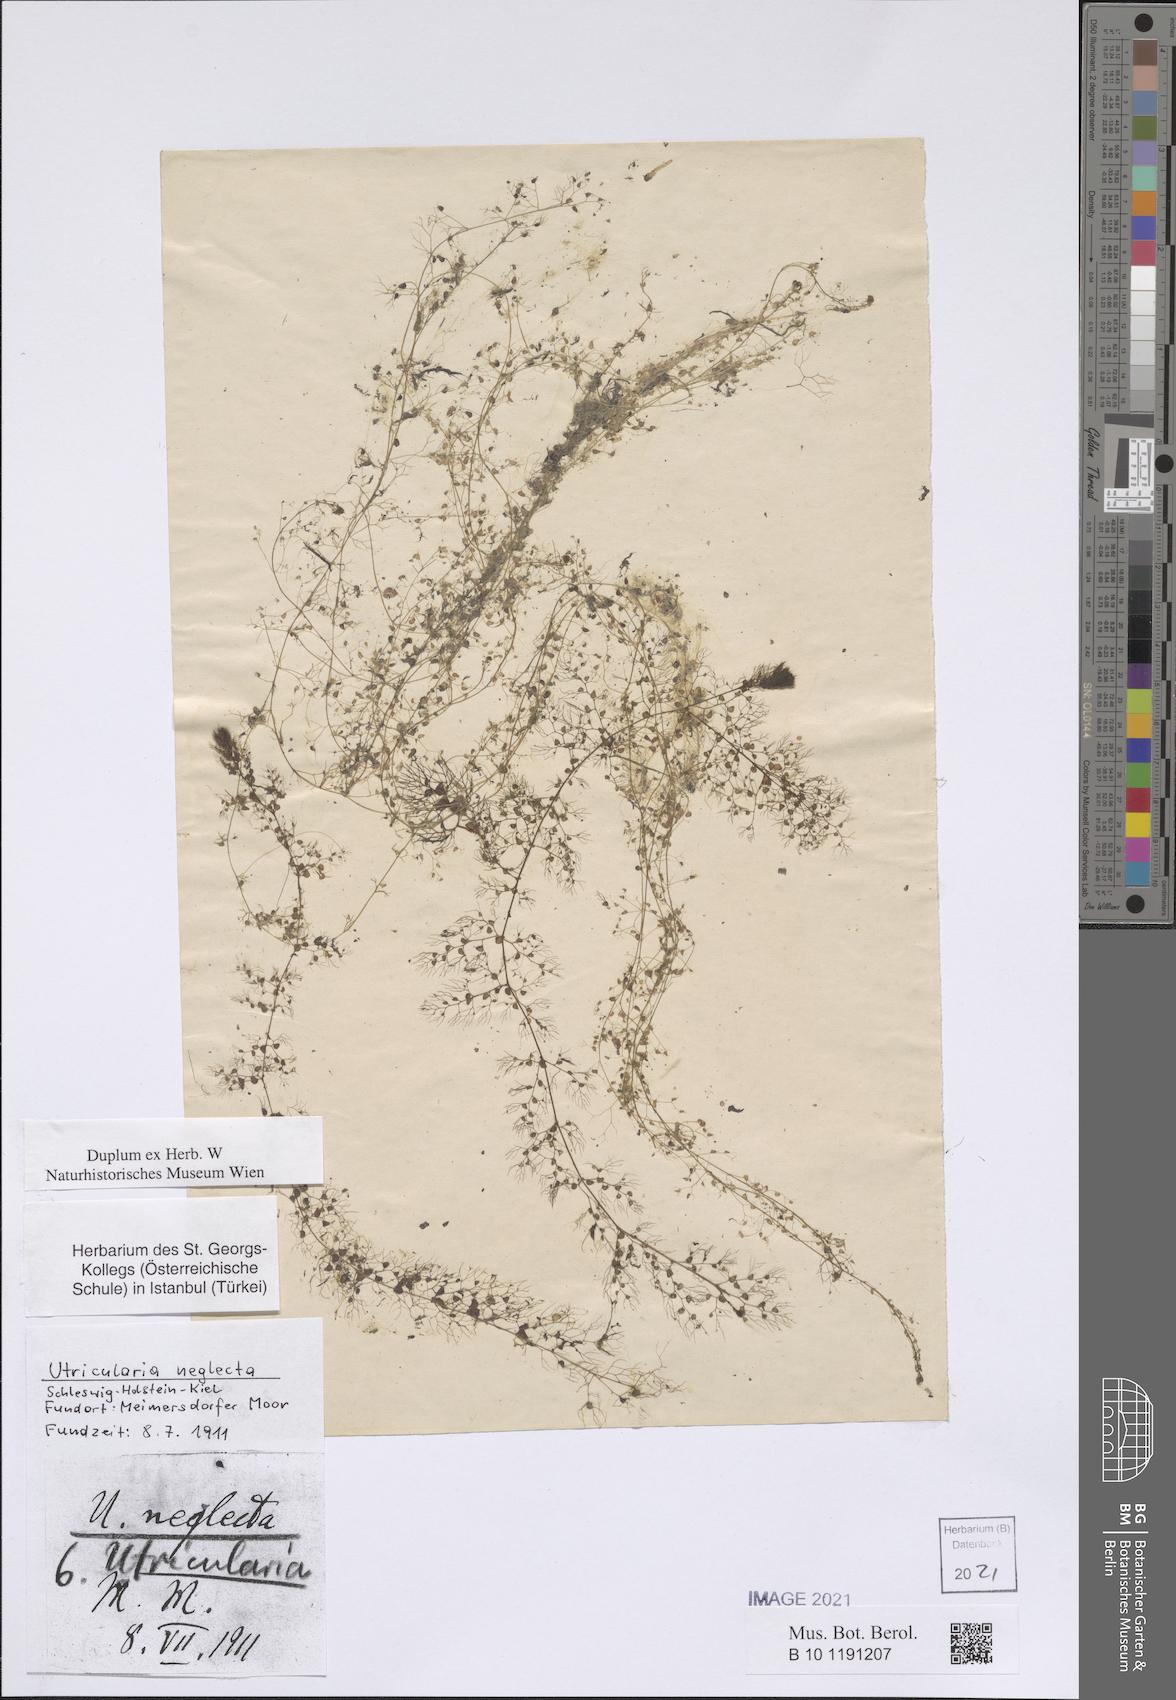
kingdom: Plantae
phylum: Tracheophyta
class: Magnoliopsida
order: Lamiales
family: Lentibulariaceae
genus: Utricularia
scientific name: Utricularia neglecta
